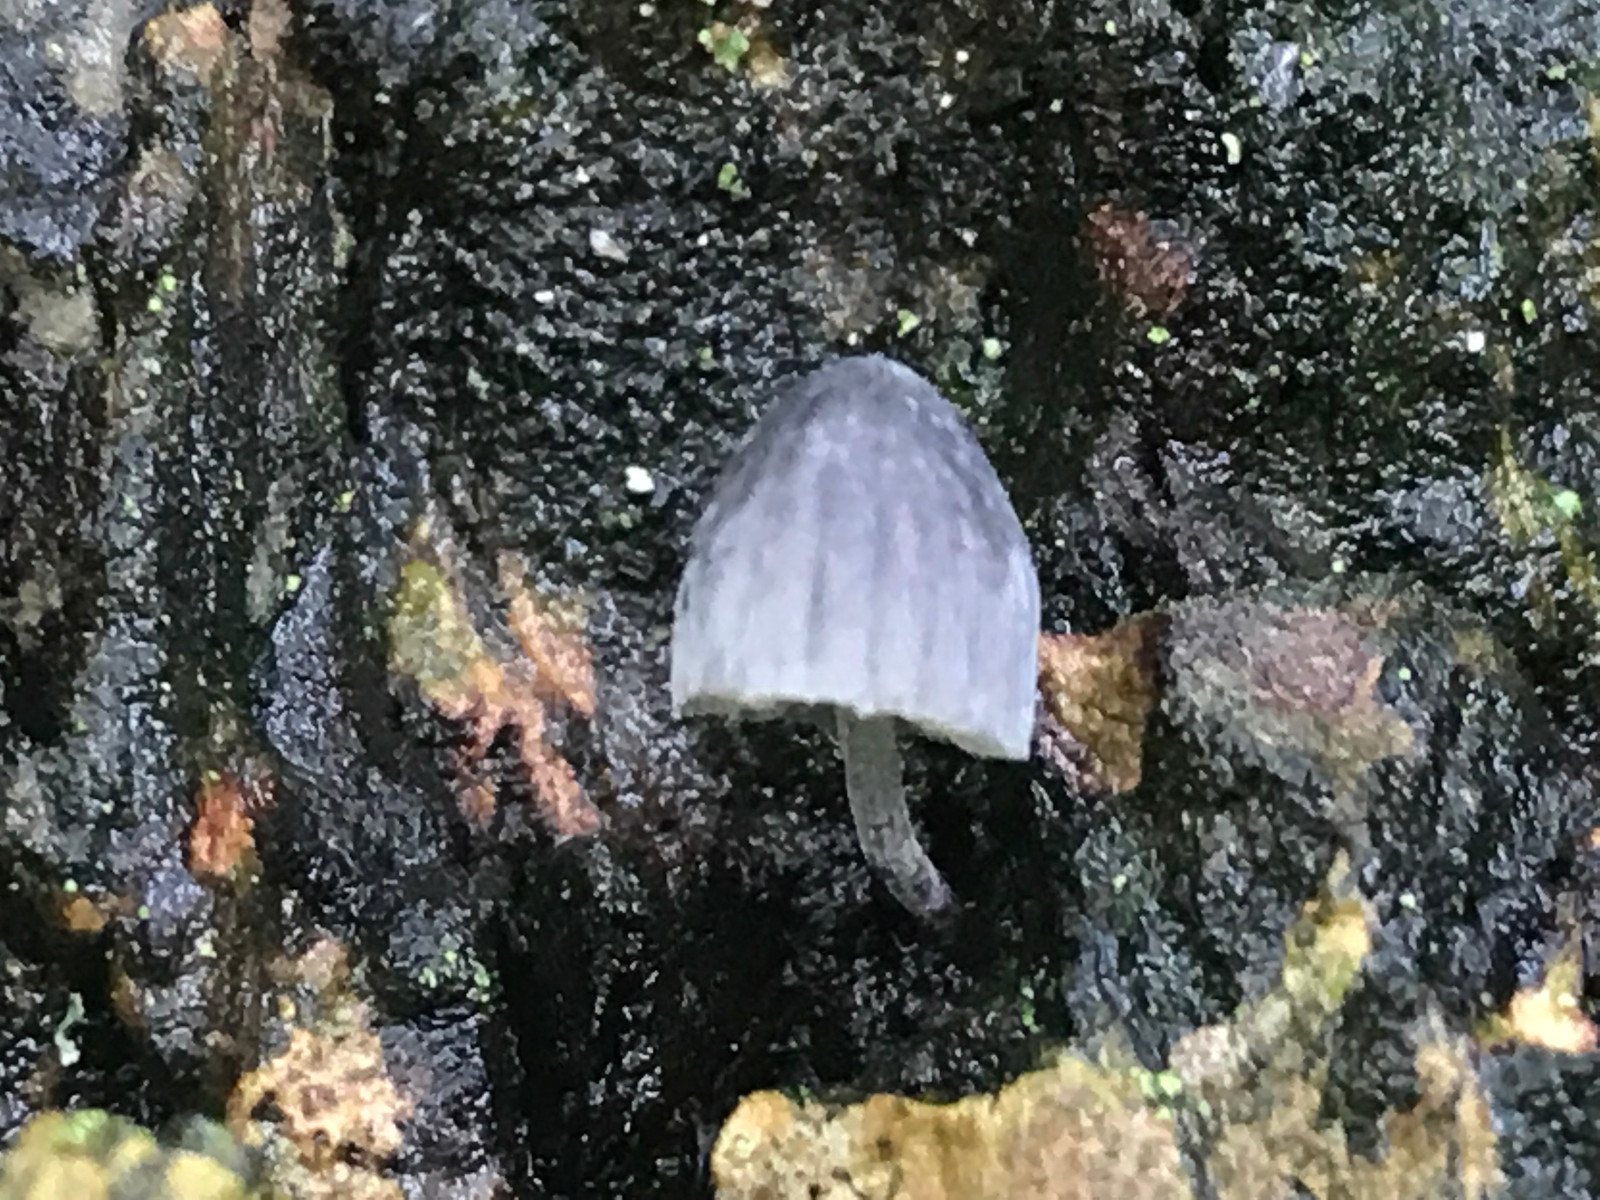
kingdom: Fungi
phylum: Basidiomycota
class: Agaricomycetes
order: Agaricales
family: Mycenaceae
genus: Mycena
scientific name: Mycena pseudocorticola
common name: gråblå bark-huesvamp
